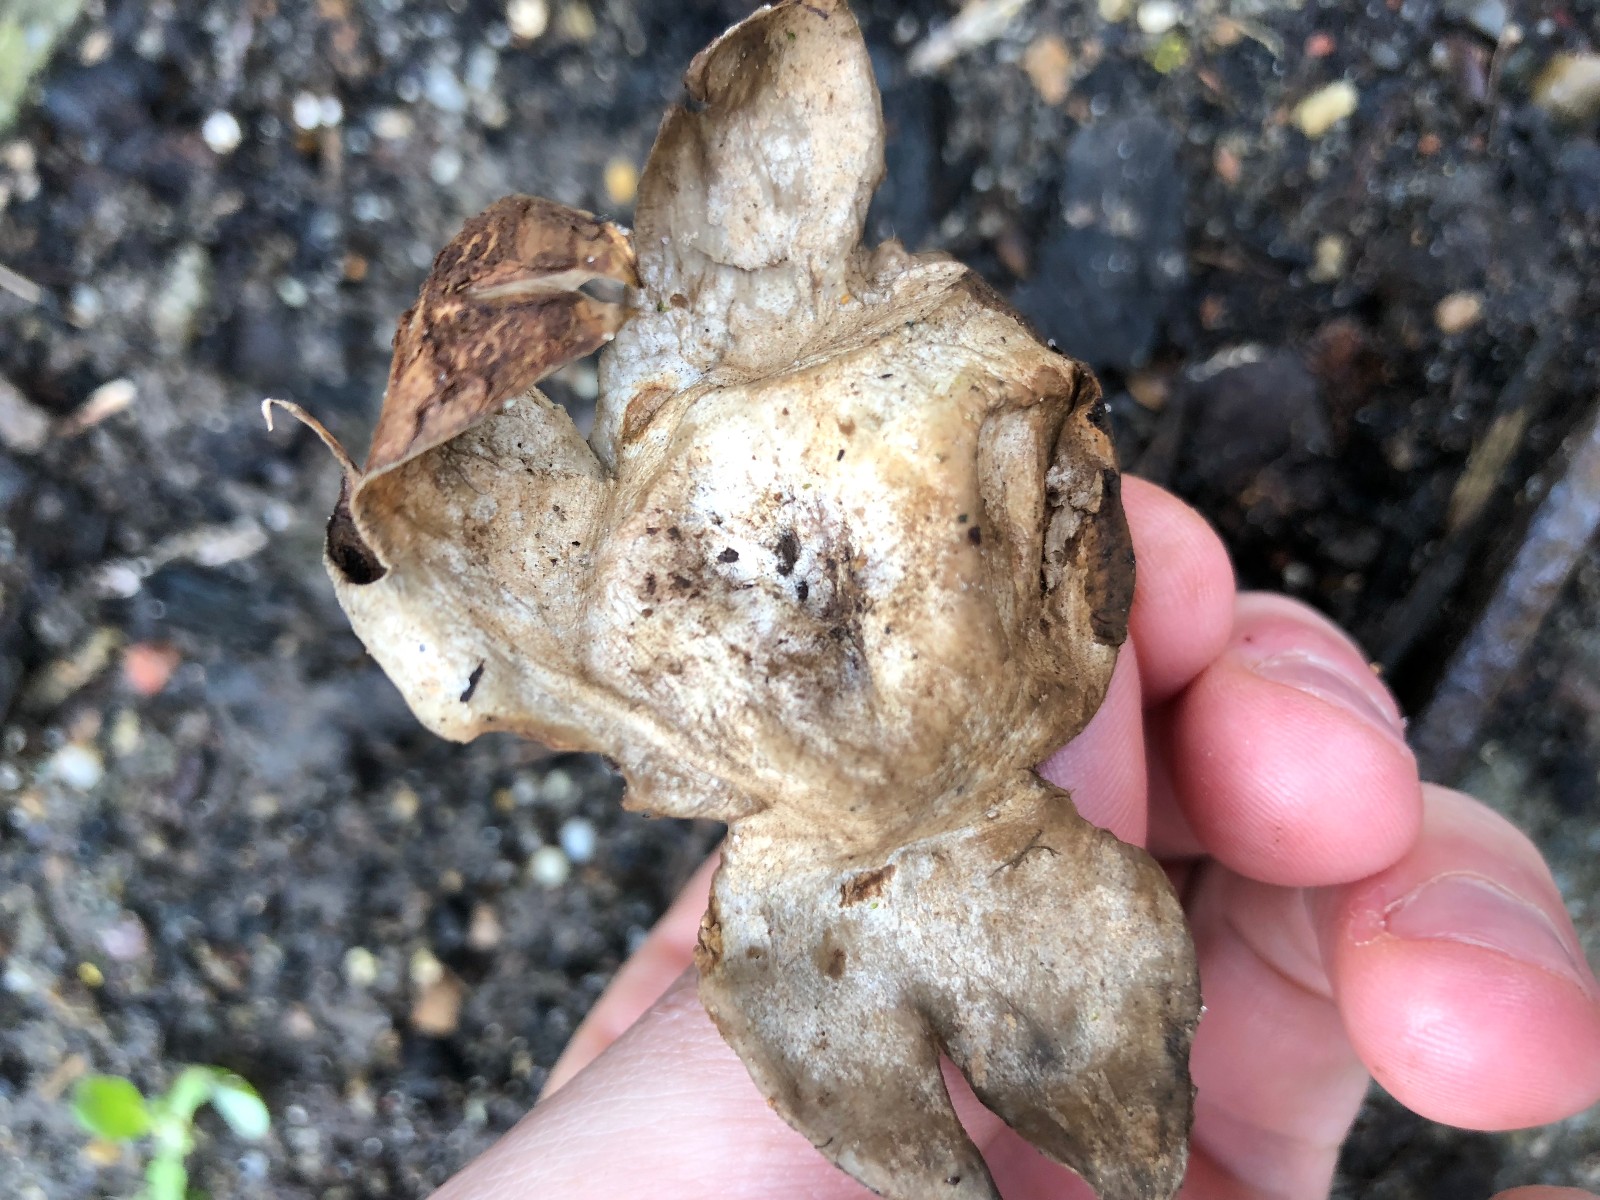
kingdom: Fungi
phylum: Basidiomycota
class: Agaricomycetes
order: Geastrales
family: Geastraceae
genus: Geastrum
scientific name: Geastrum
